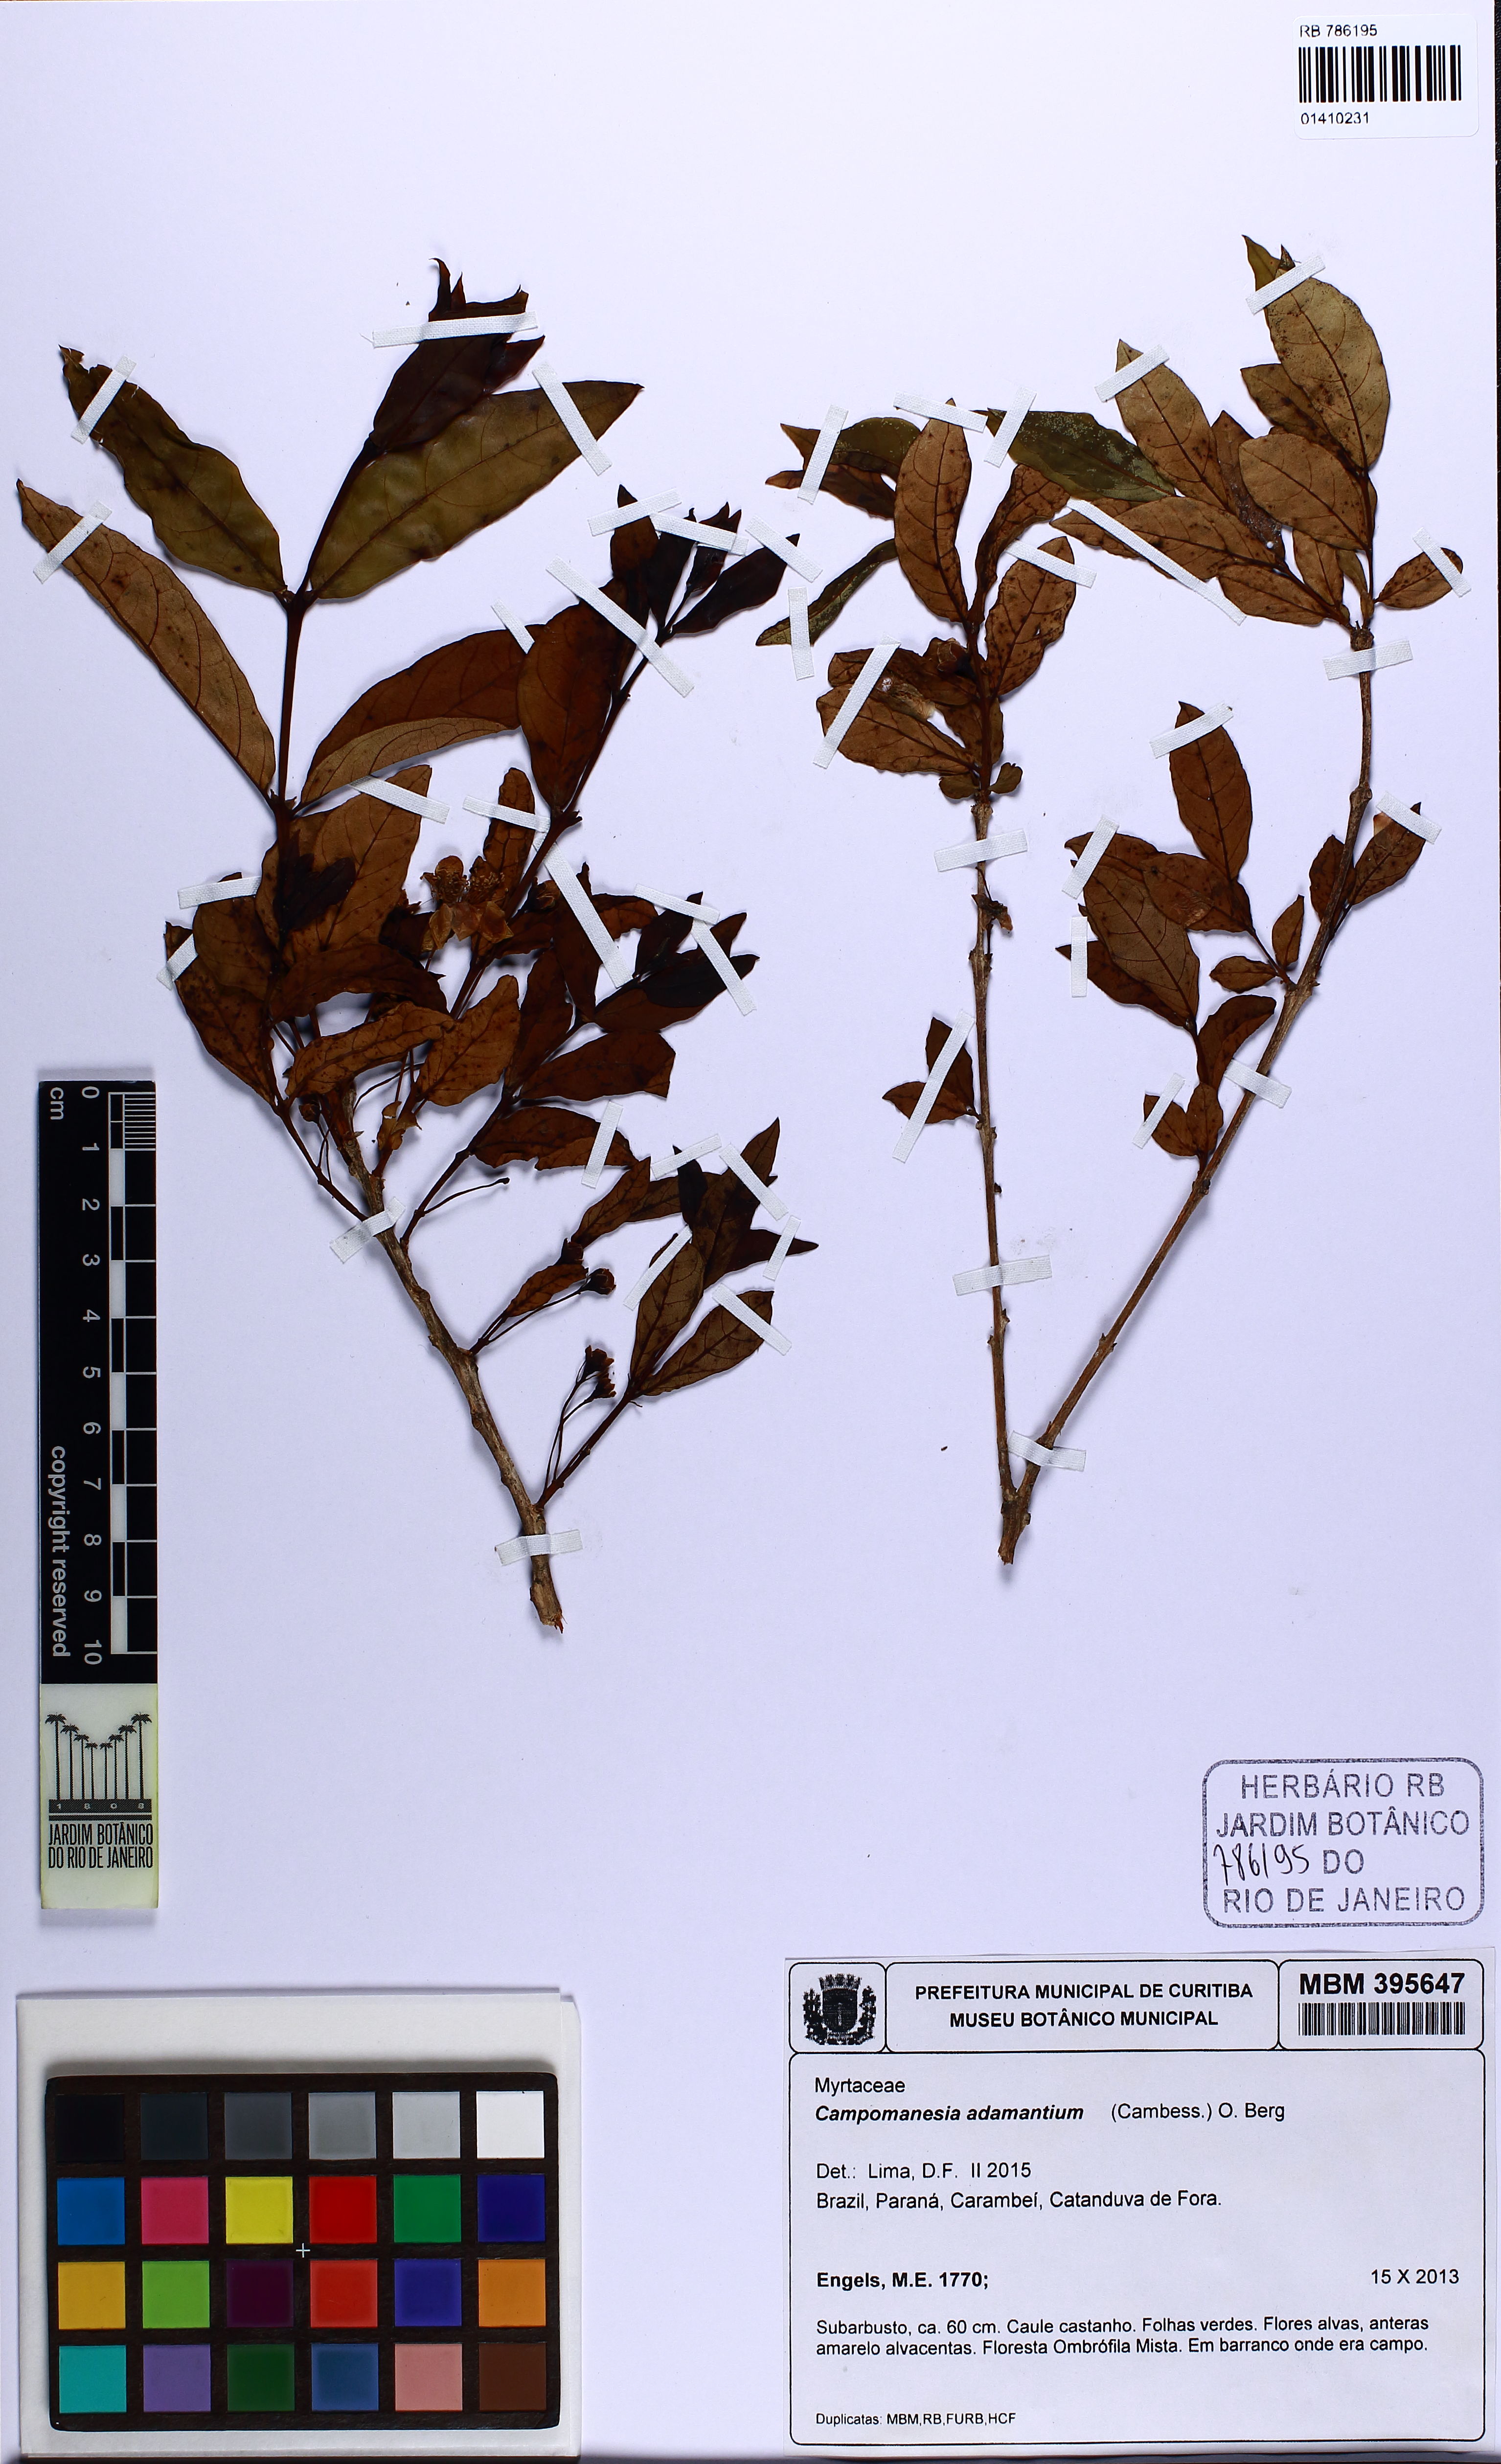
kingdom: Plantae
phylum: Tracheophyta
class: Magnoliopsida
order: Myrtales
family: Myrtaceae
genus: Campomanesia
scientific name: Campomanesia adamantium
